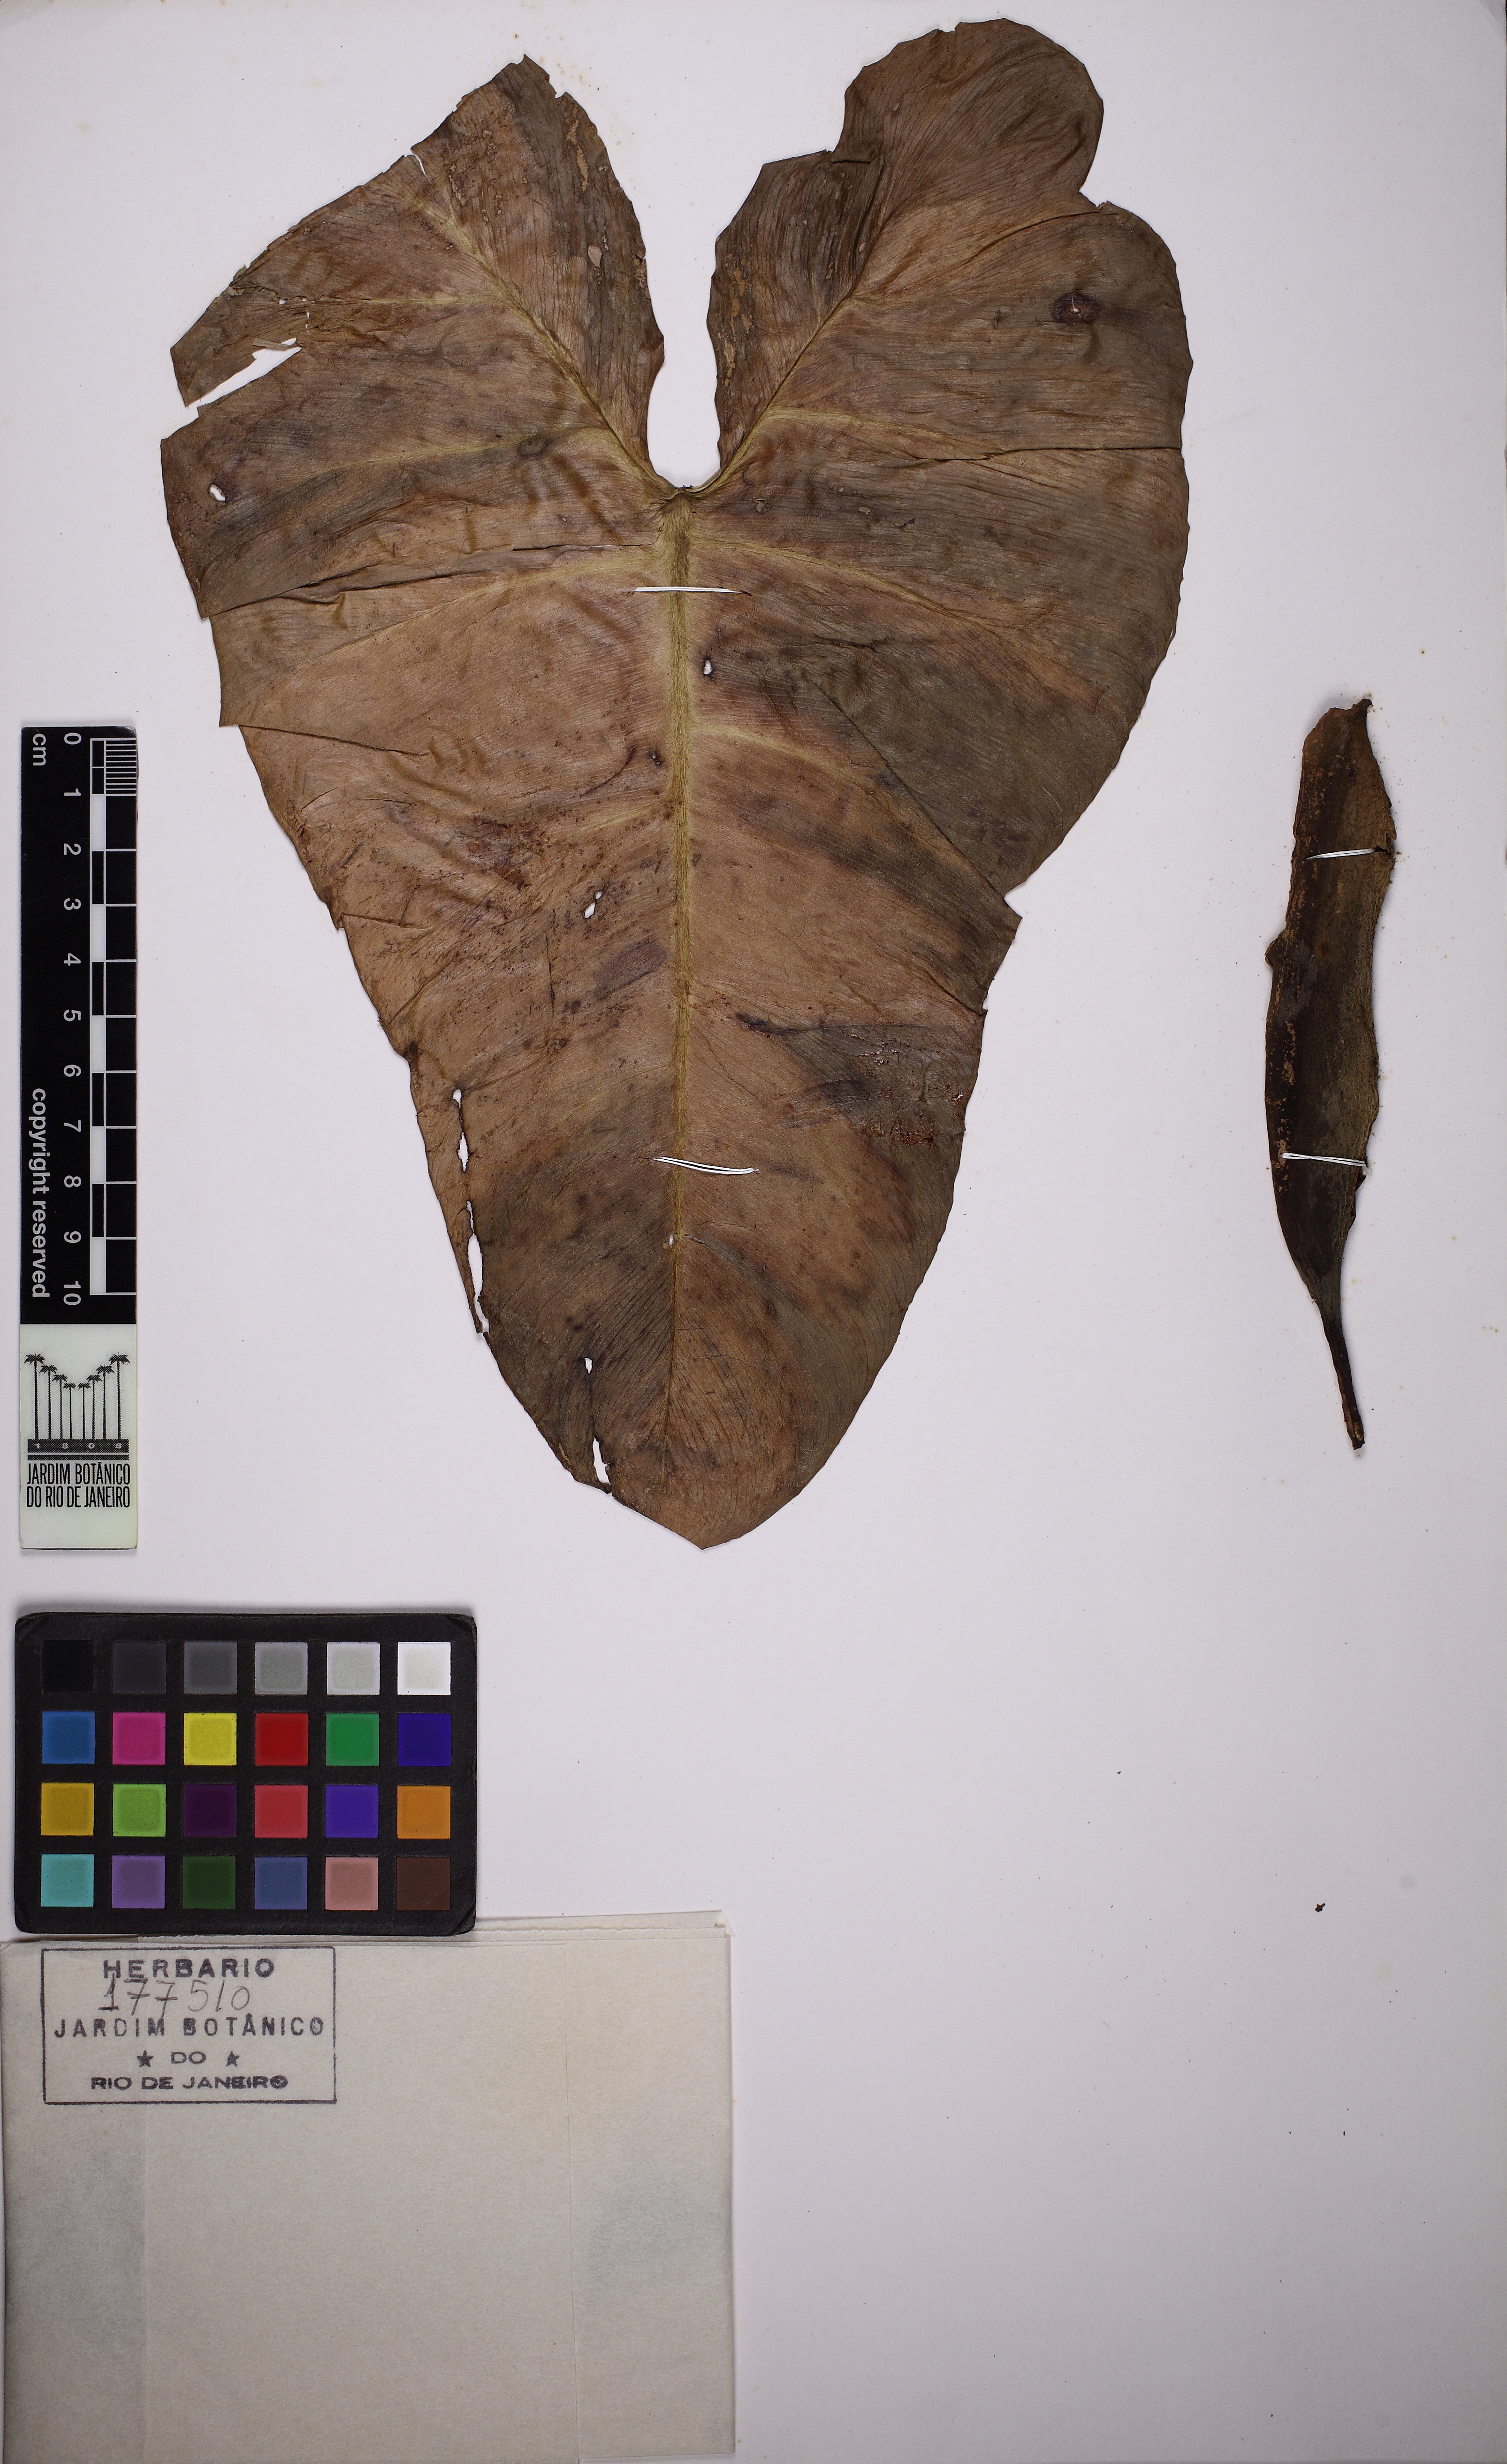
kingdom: Plantae
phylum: Tracheophyta
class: Liliopsida
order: Alismatales
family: Araceae
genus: Philodendron
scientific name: Philodendron quinquenervium
